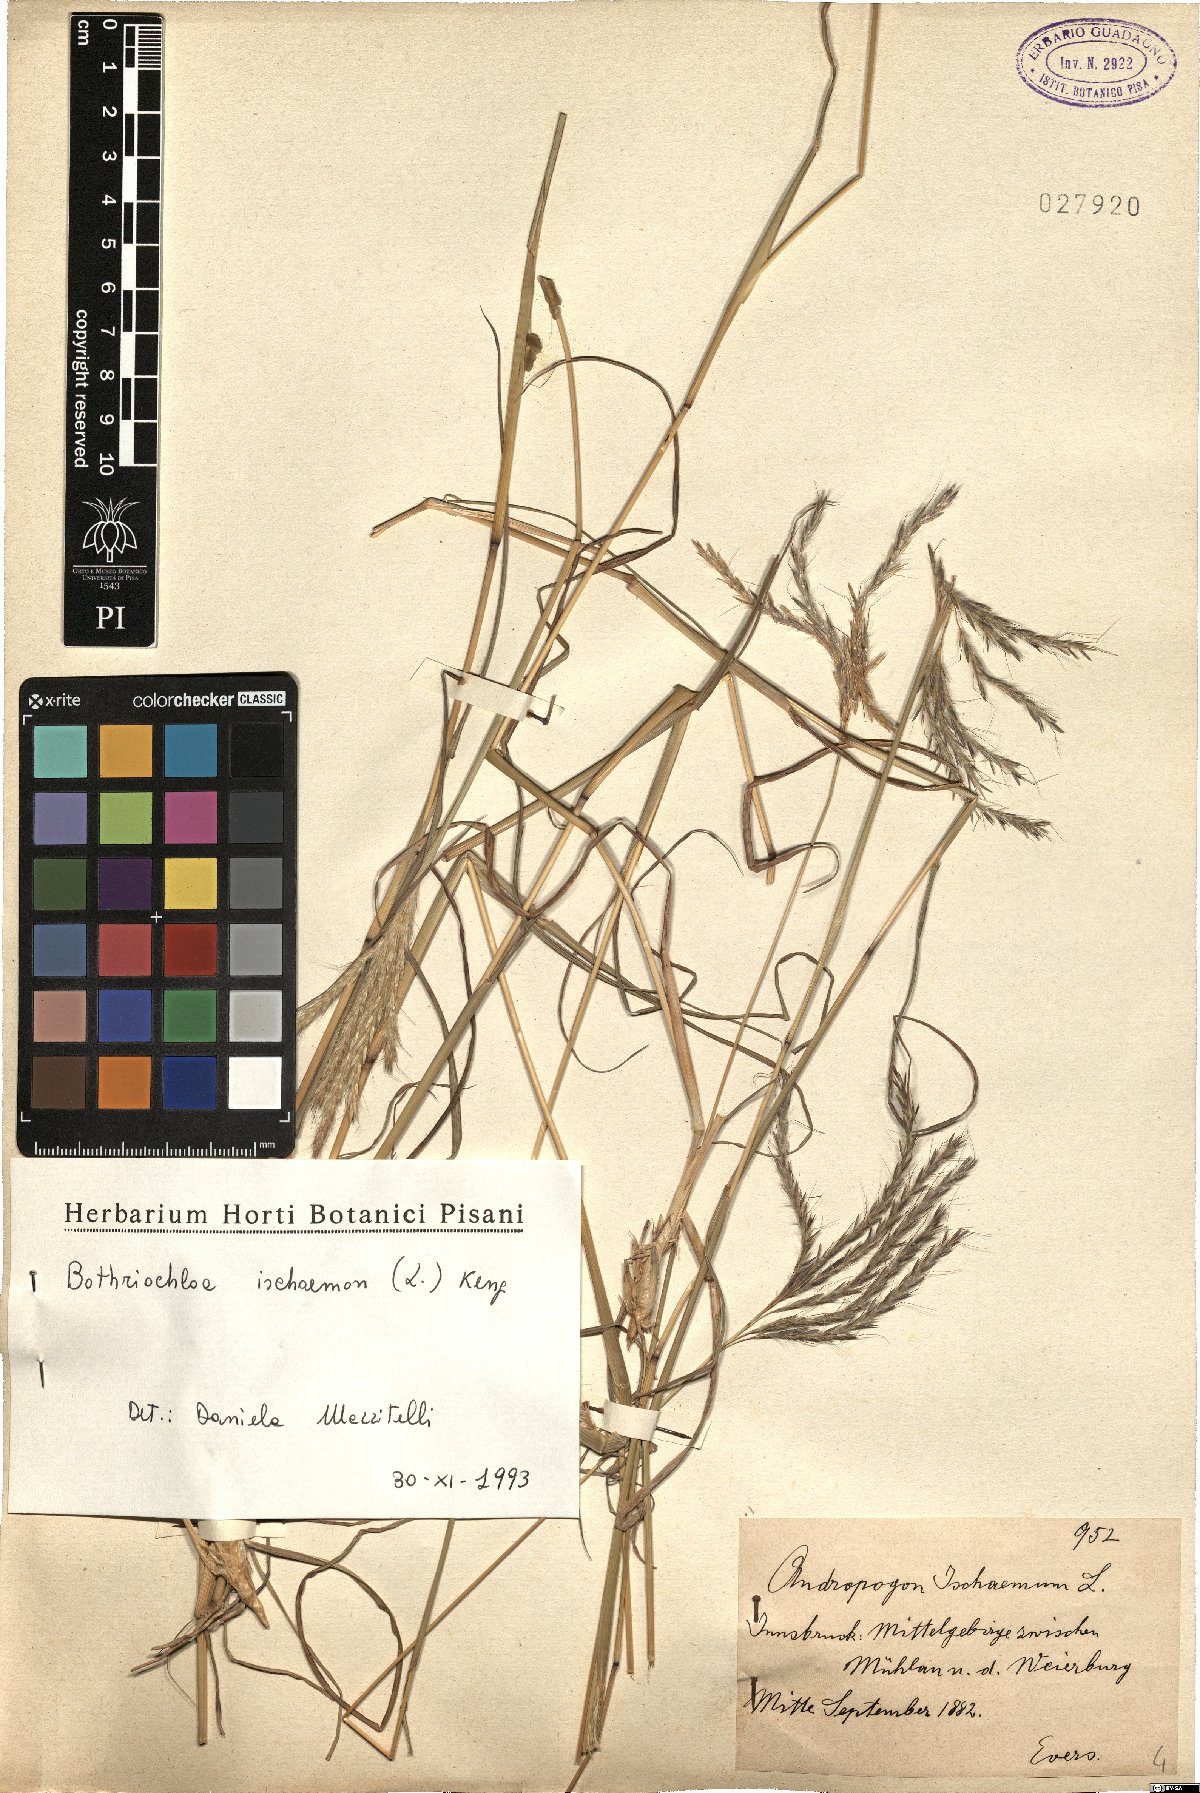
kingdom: Plantae
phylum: Tracheophyta
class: Liliopsida
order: Poales
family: Poaceae
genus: Bothriochloa
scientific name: Bothriochloa ischaemum
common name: Yellow bluestem
